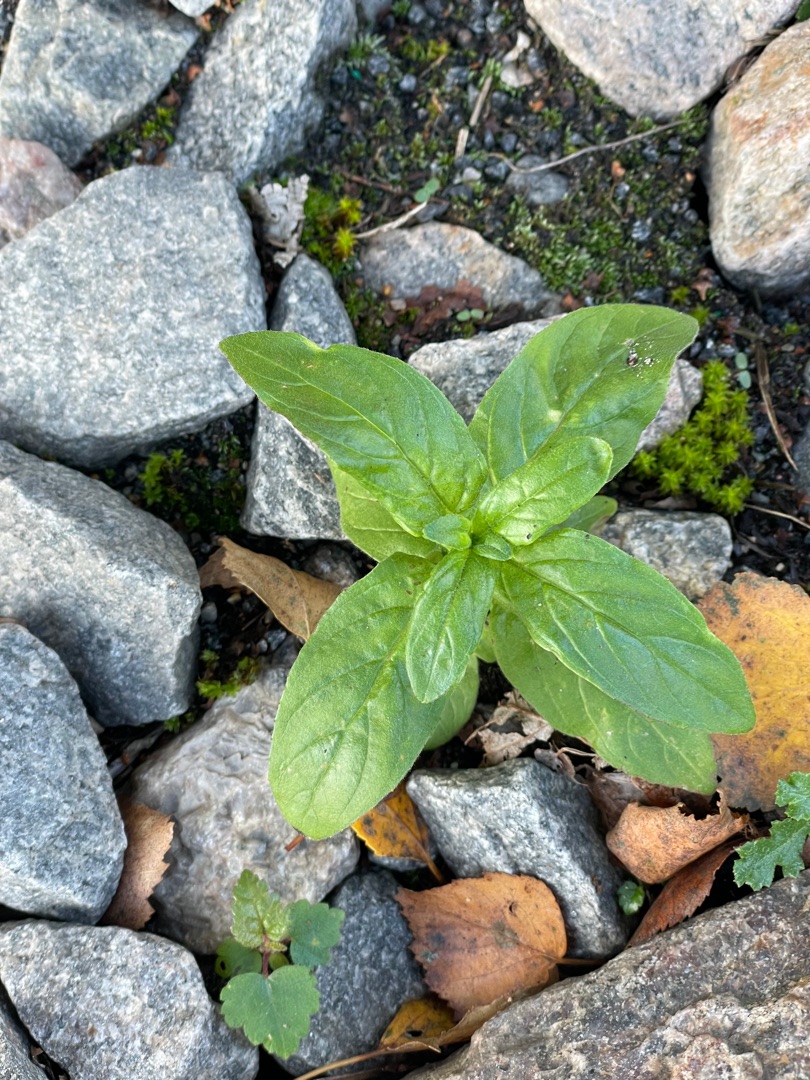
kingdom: Plantae
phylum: Tracheophyta
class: Magnoliopsida
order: Myrtales
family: Onagraceae
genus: Epilobium
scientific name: Epilobium
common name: Dueurtslægten
